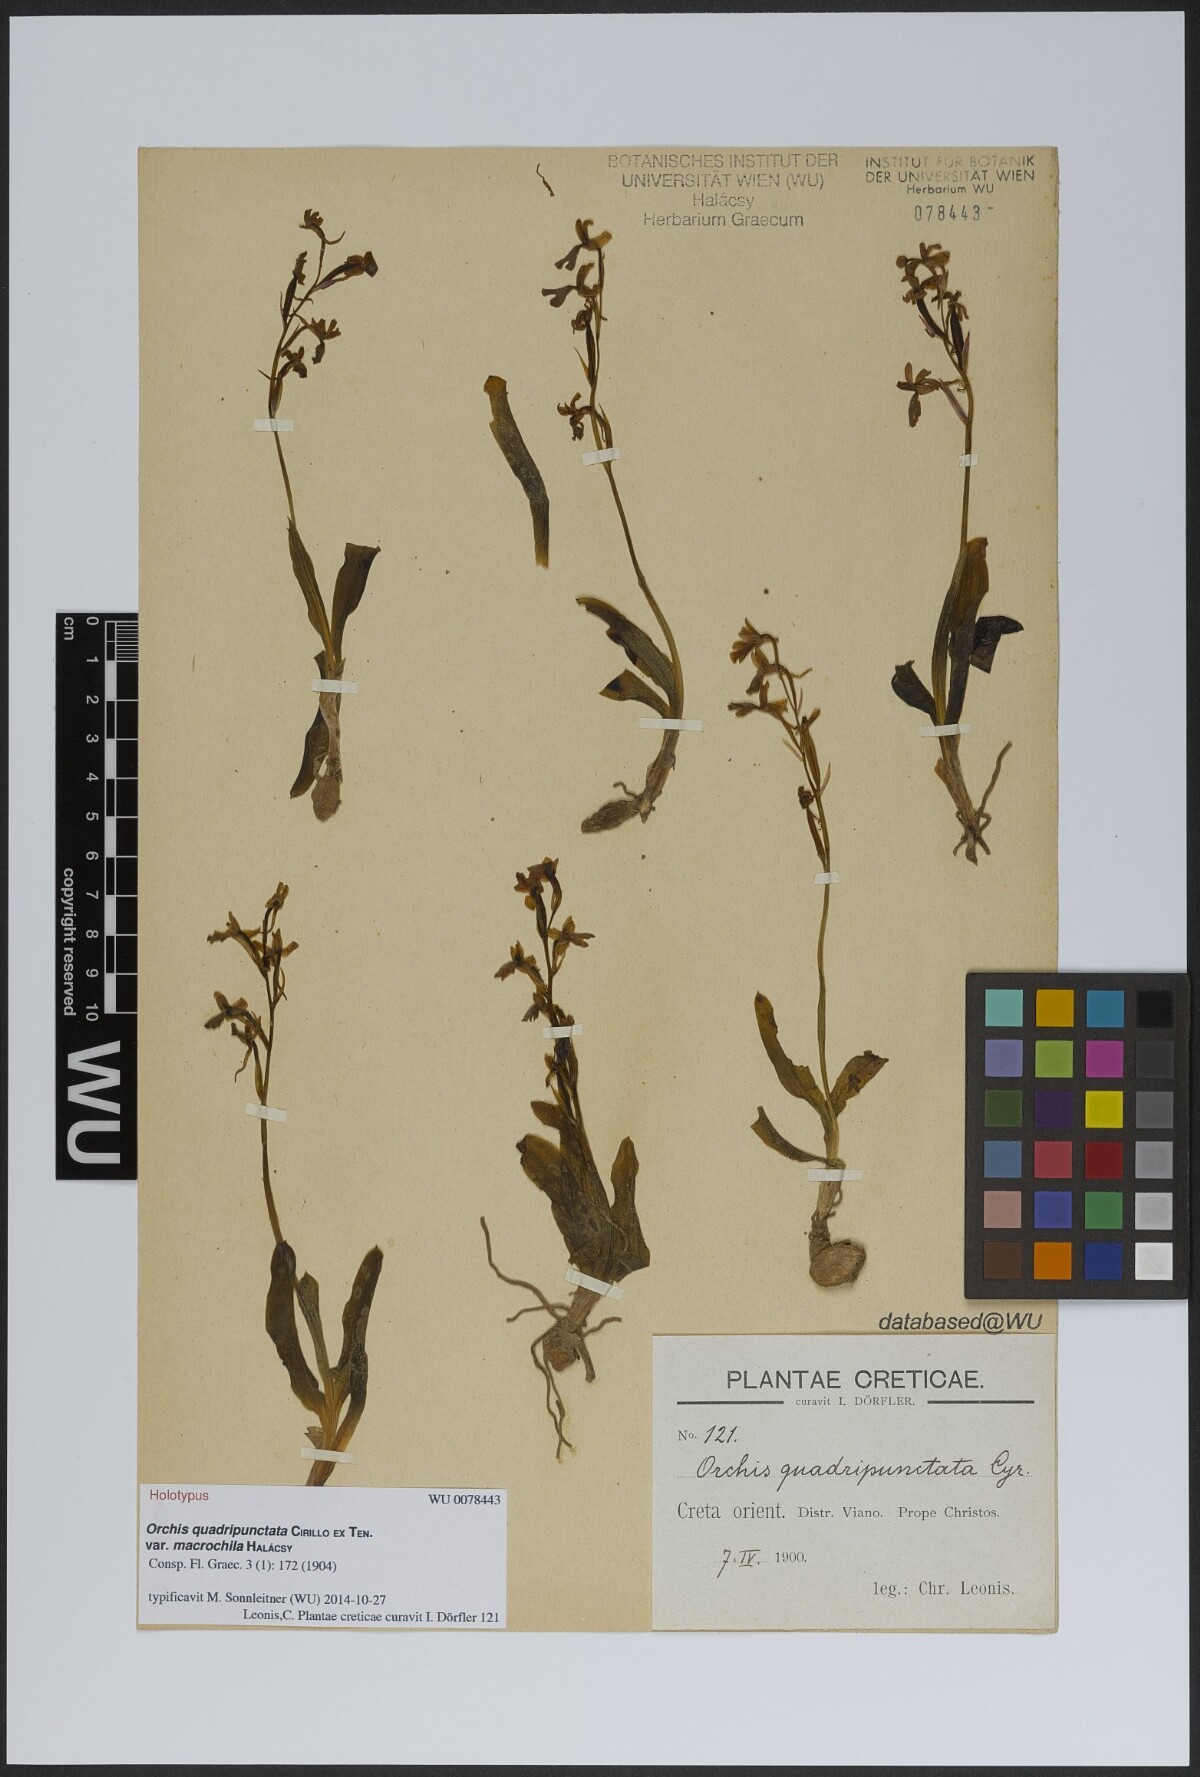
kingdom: Plantae
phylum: Tracheophyta
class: Liliopsida
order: Asparagales
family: Orchidaceae
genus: Orchis
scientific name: Orchis brancifortii
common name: Branciforti's orchid
